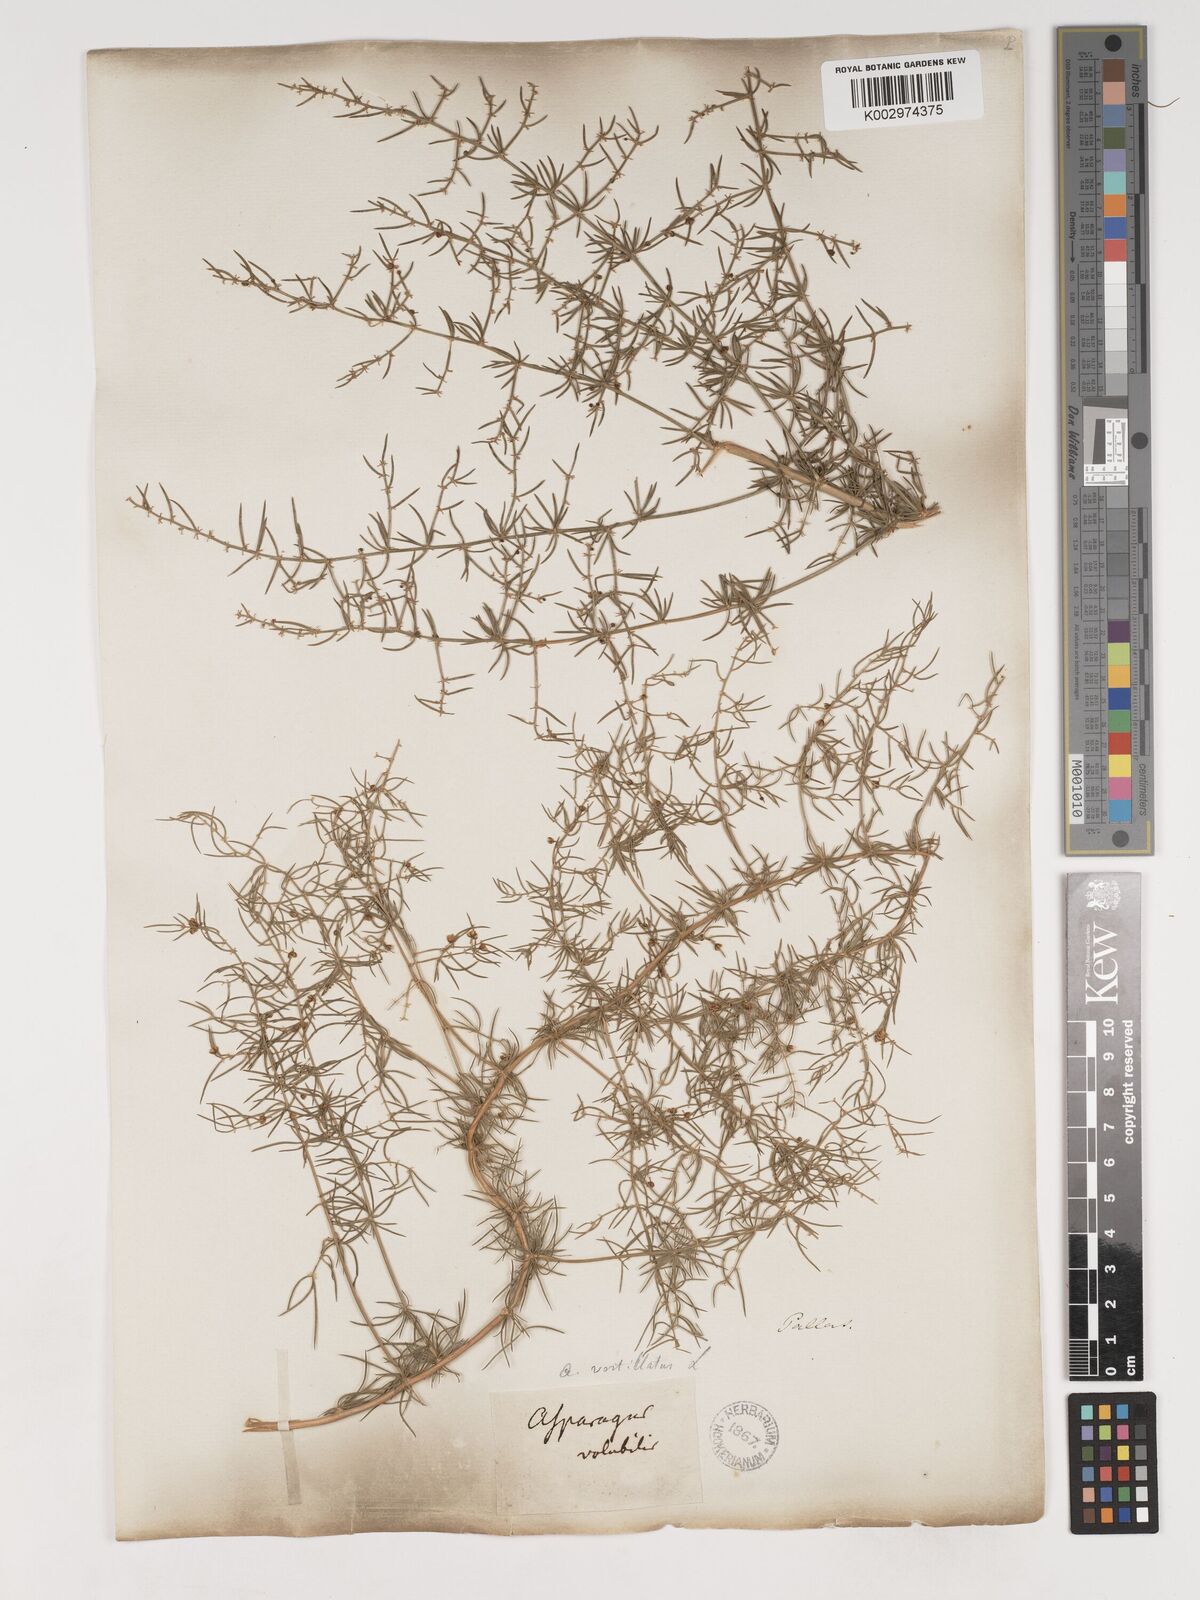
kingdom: Plantae
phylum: Tracheophyta
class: Liliopsida
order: Asparagales
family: Asparagaceae
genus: Asparagus
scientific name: Asparagus verticillatus
